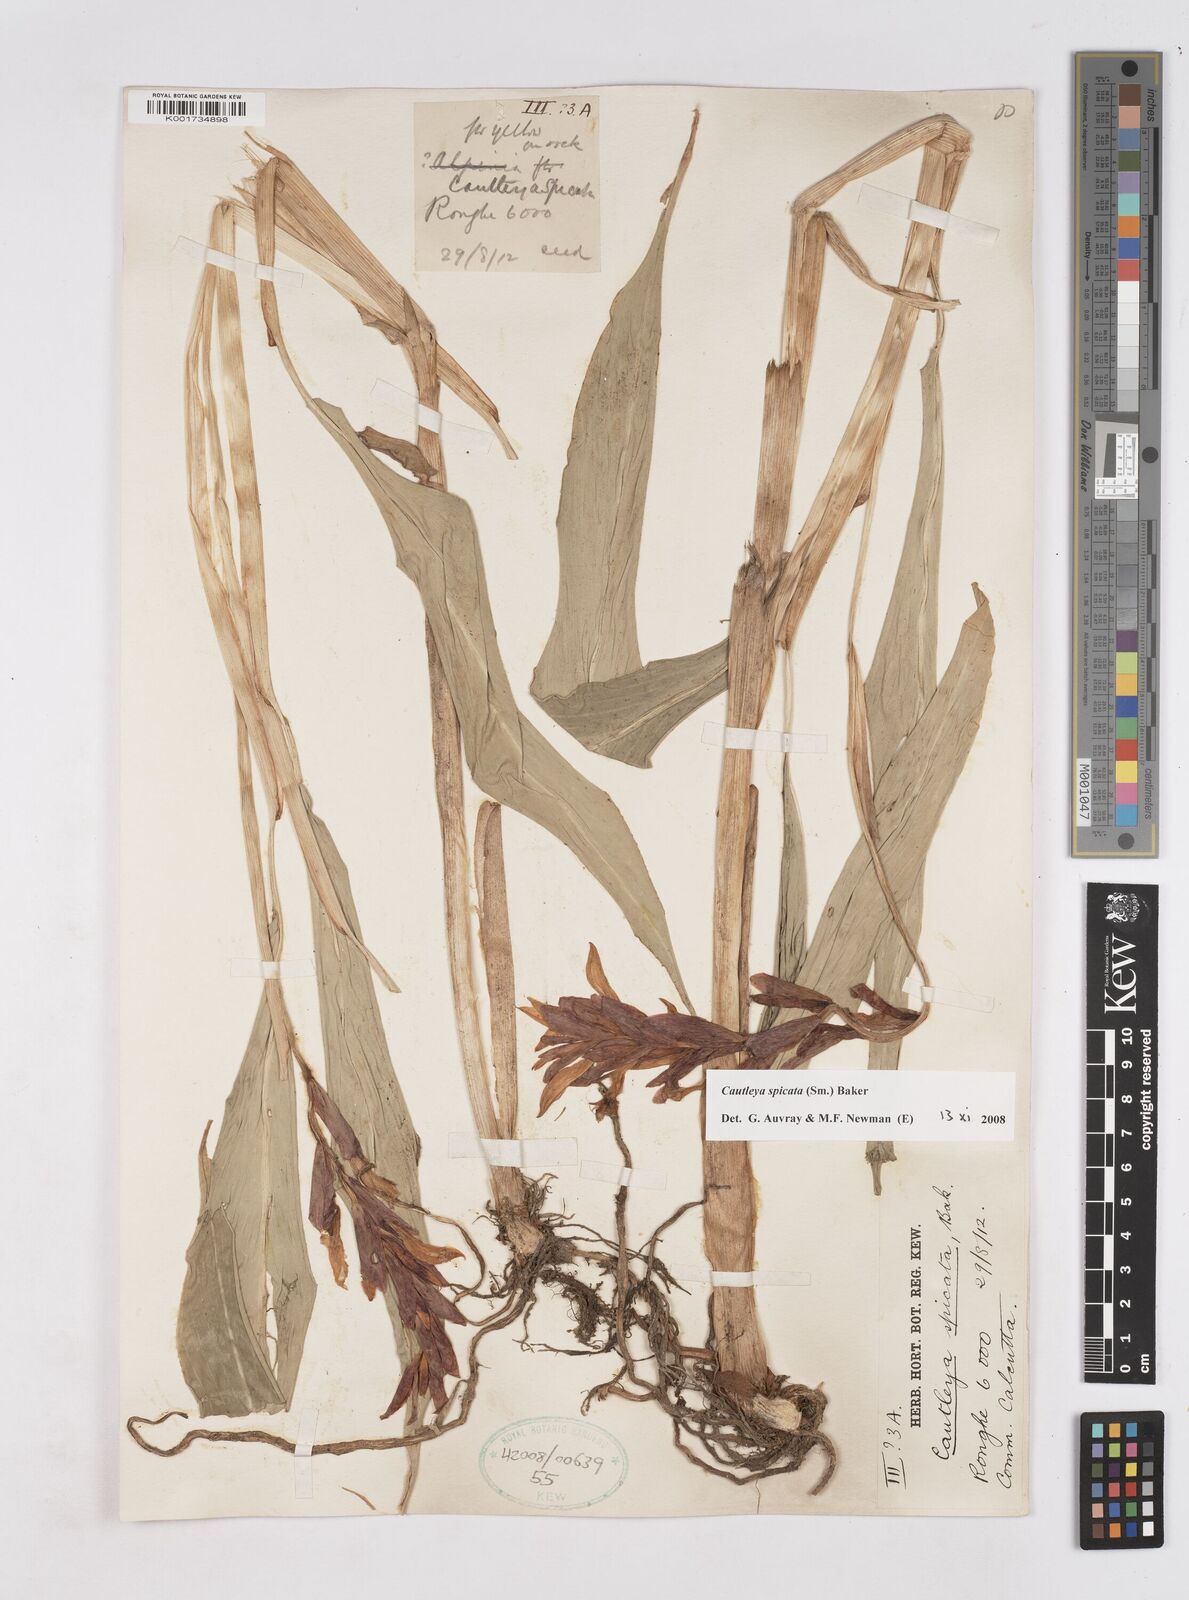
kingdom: Plantae
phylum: Tracheophyta
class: Liliopsida
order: Zingiberales
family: Zingiberaceae
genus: Cautleya
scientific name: Cautleya spicata
